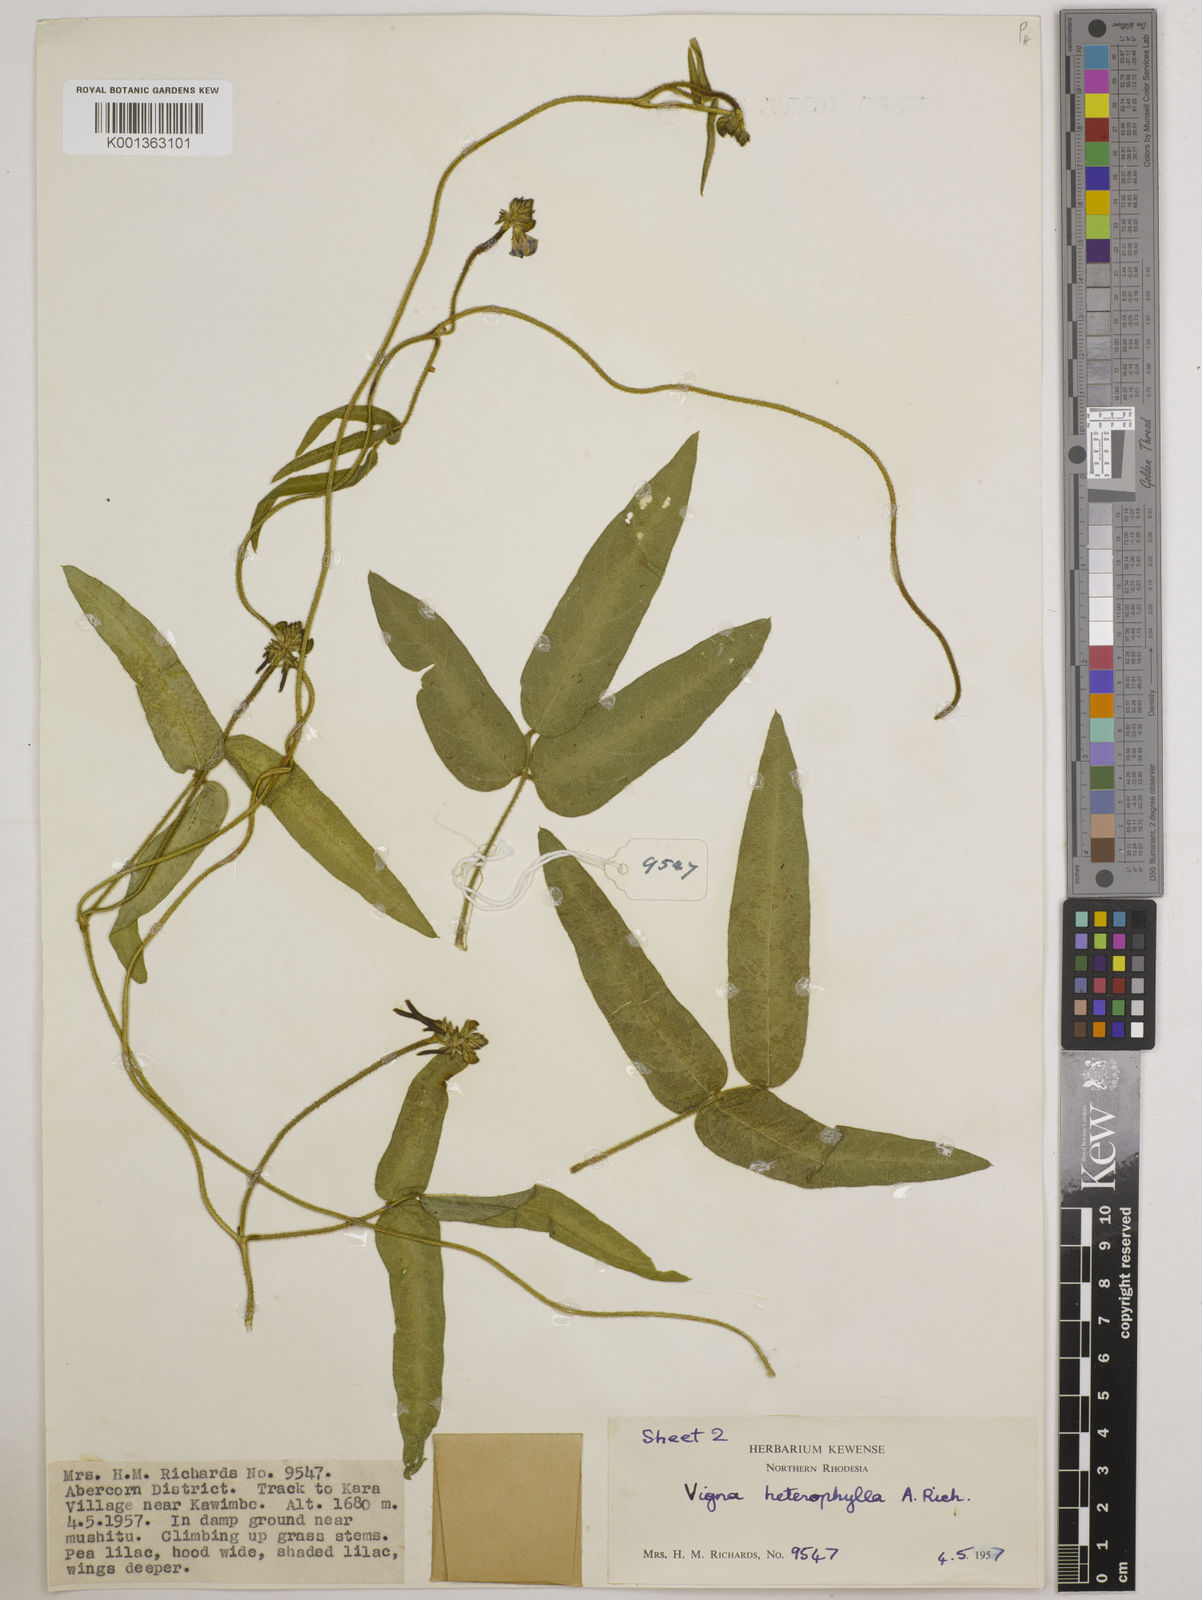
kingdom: Plantae
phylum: Tracheophyta
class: Magnoliopsida
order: Fabales
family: Fabaceae
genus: Vigna
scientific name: Vigna heterophylla
